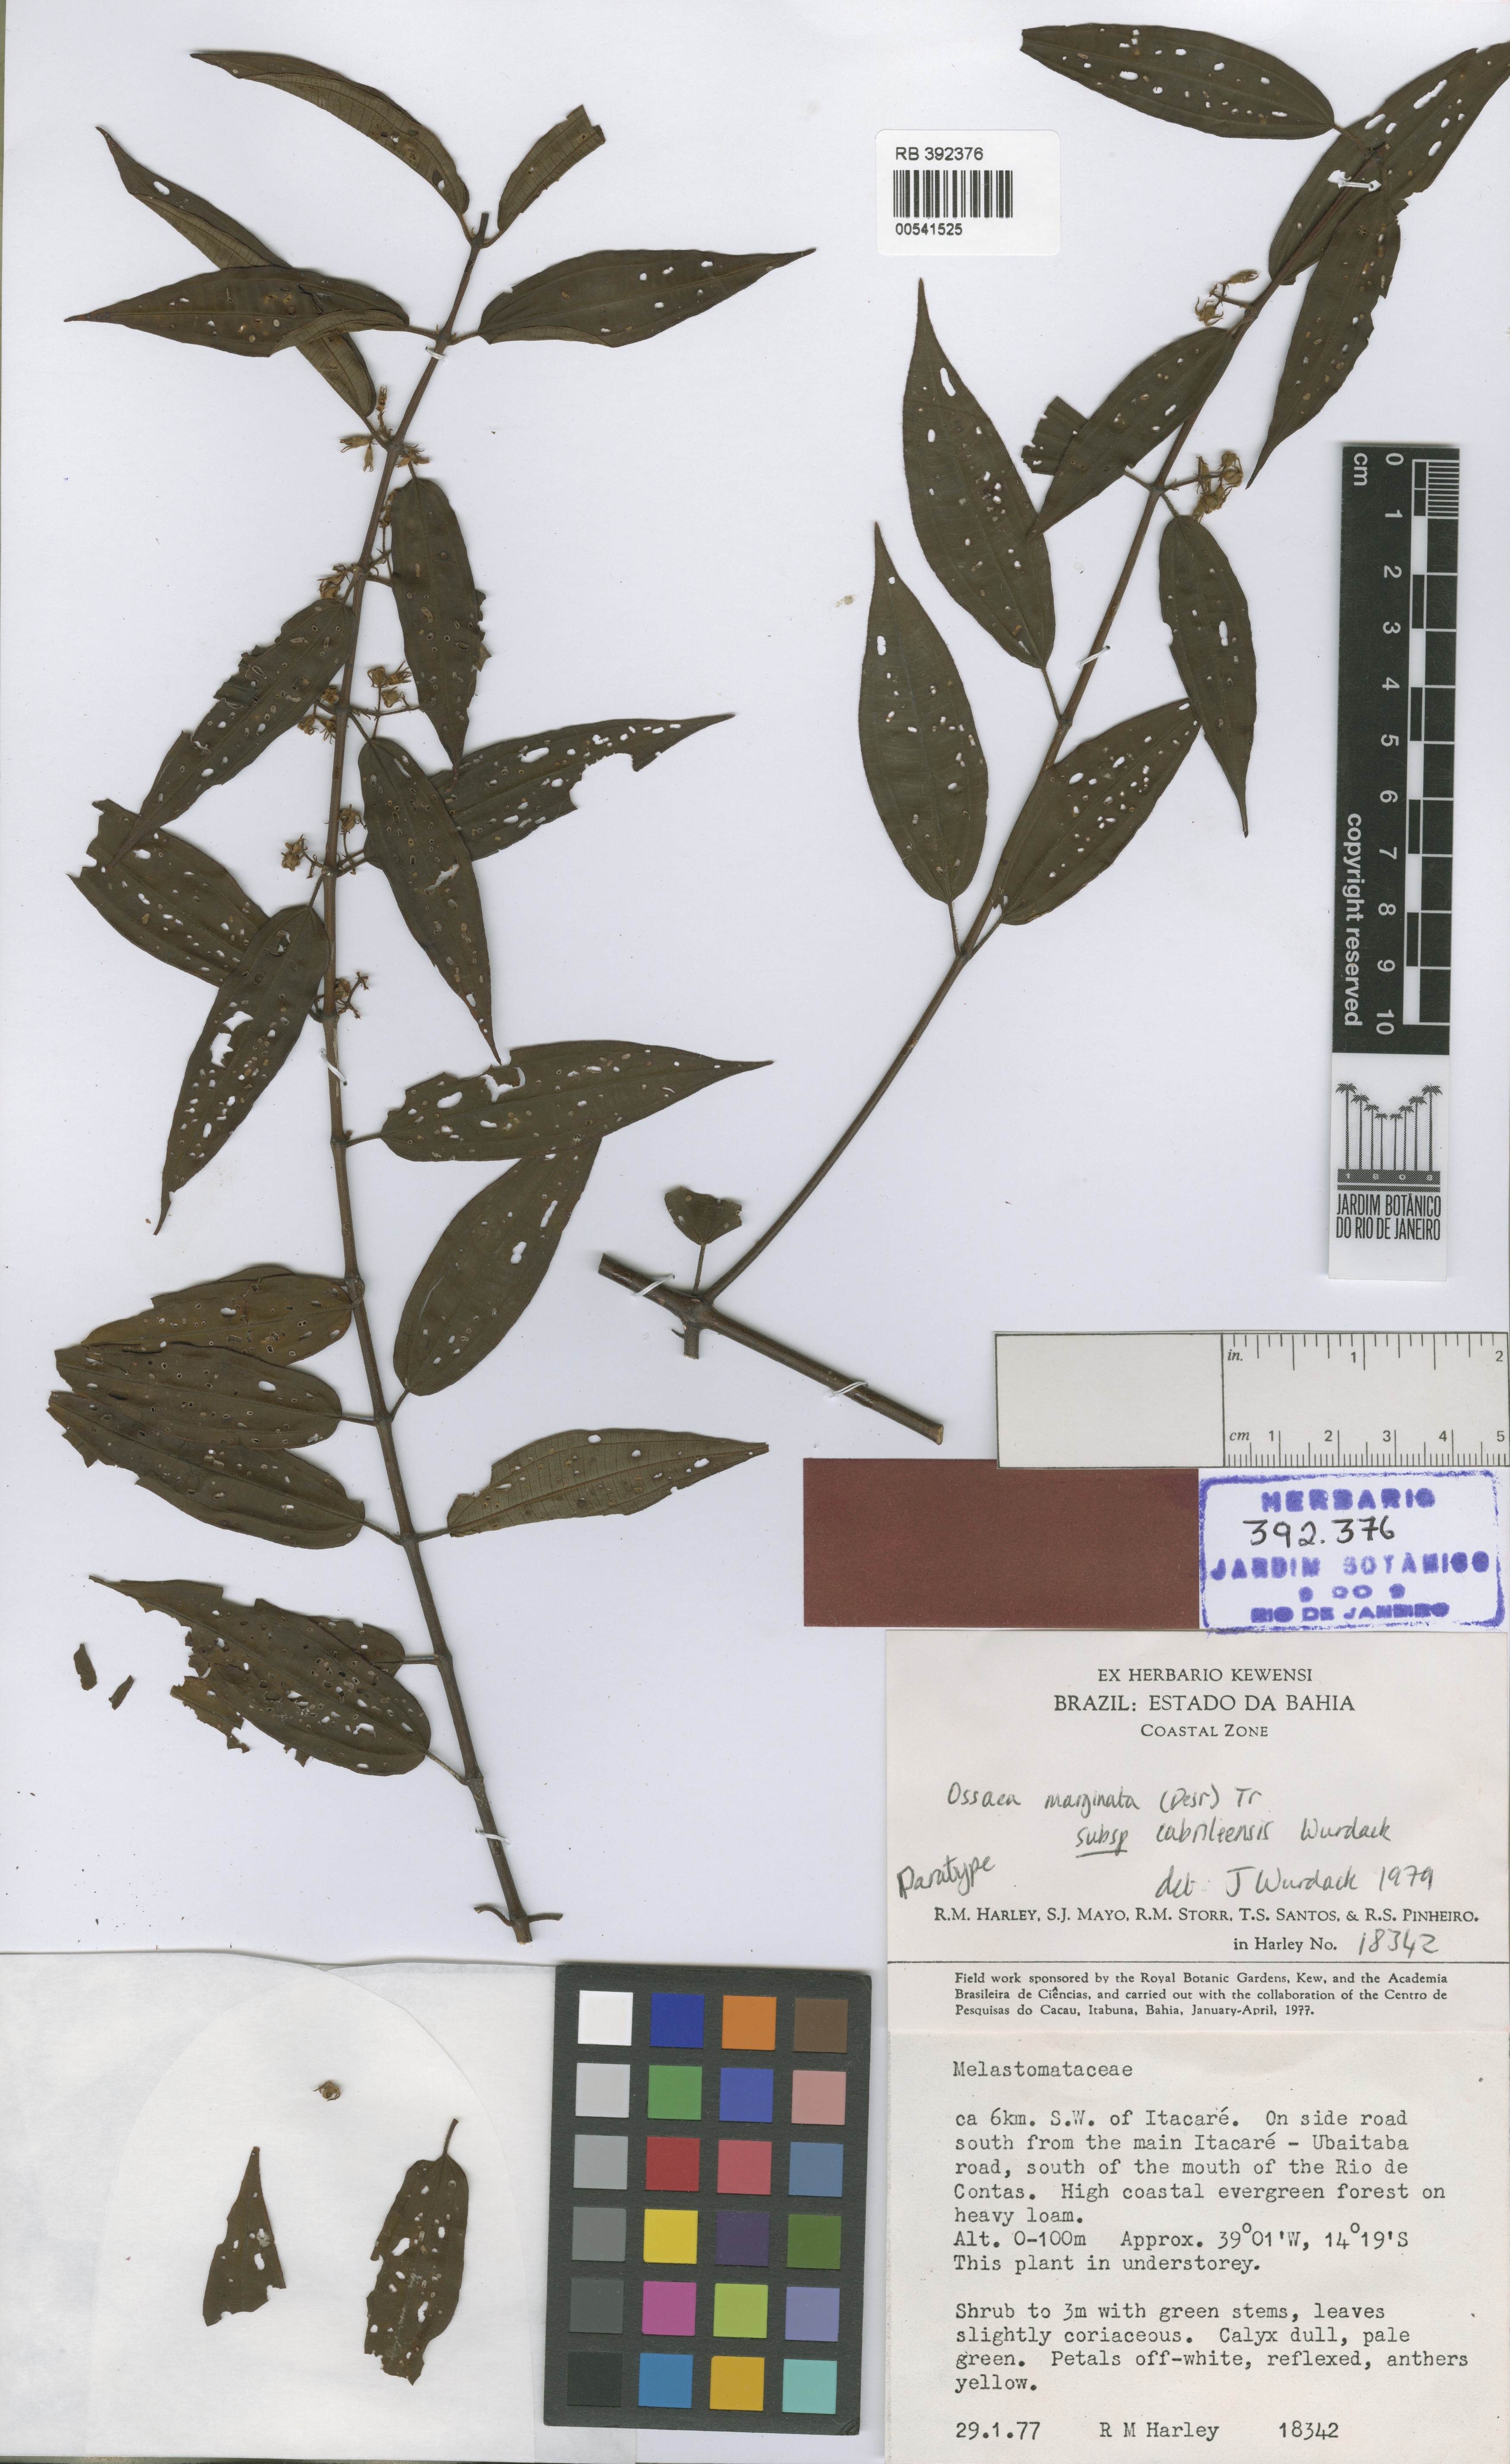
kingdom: Plantae
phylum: Tracheophyta
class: Magnoliopsida
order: Myrtales
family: Melastomataceae
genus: Miconia
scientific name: Miconia cabraliensis
